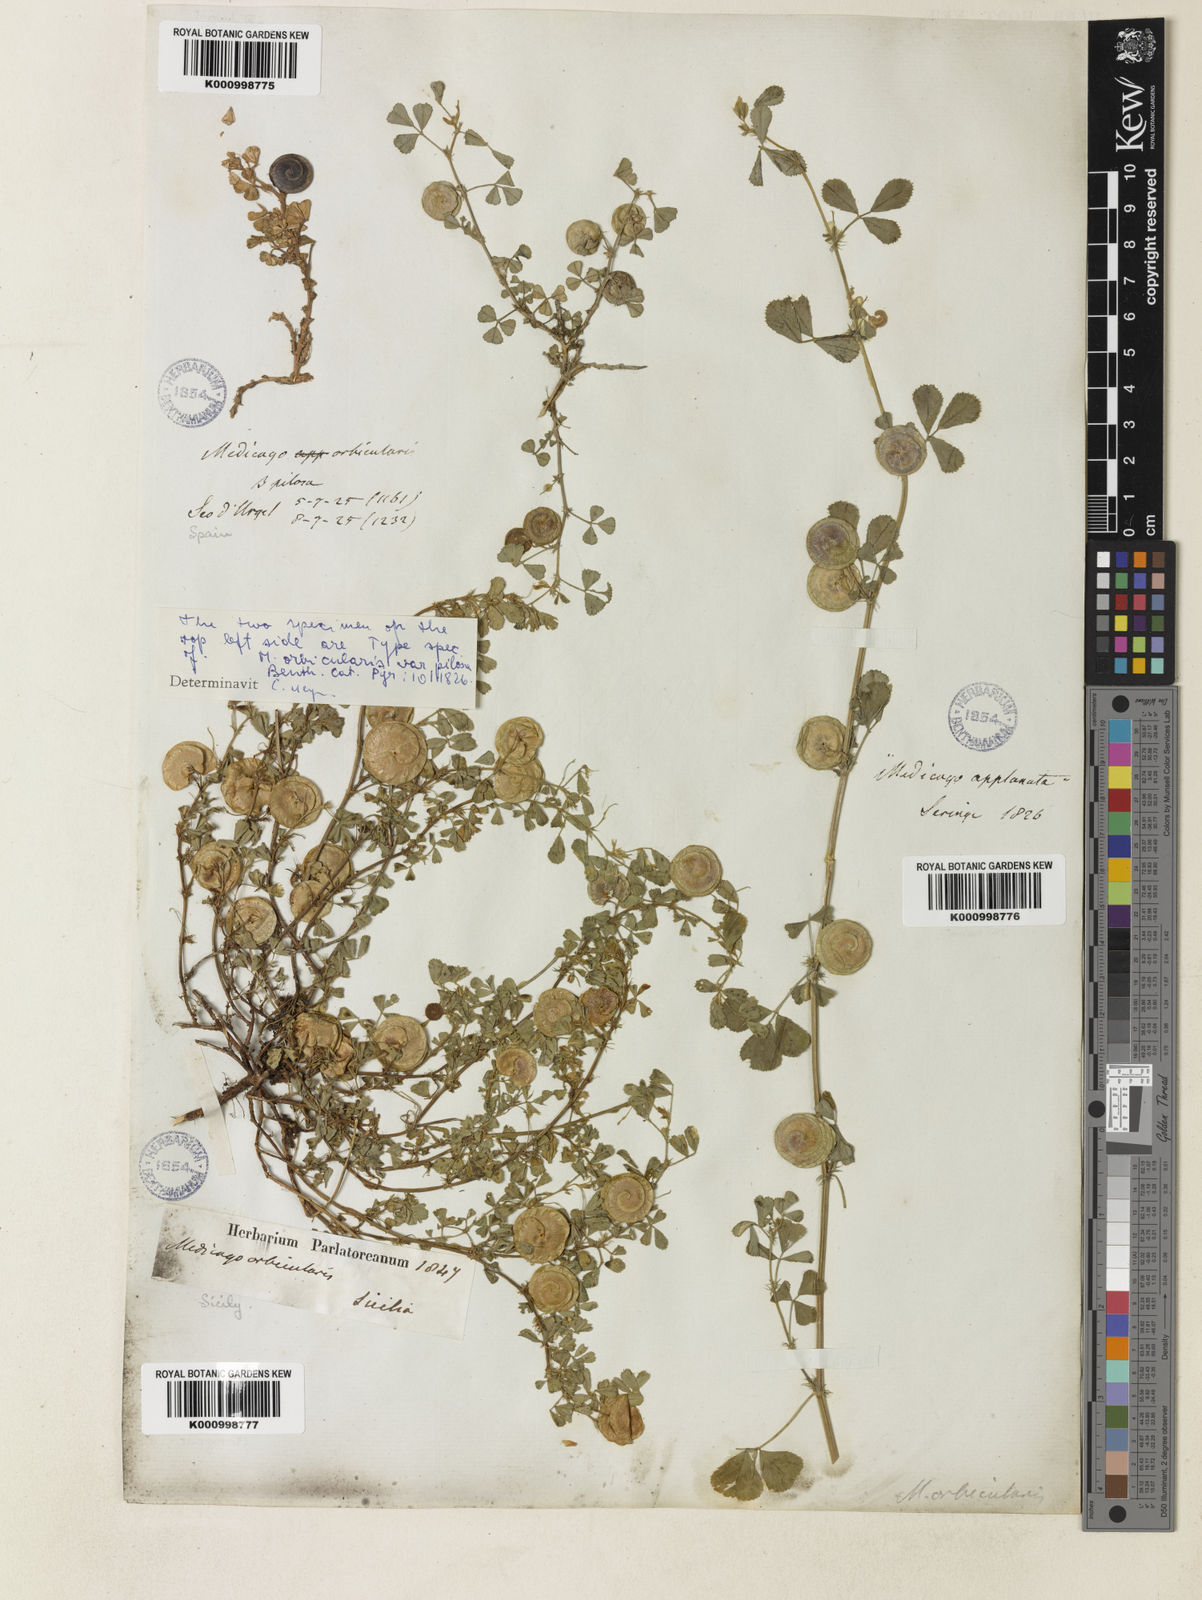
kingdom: Plantae
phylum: Tracheophyta
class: Magnoliopsida
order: Fabales
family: Fabaceae
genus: Medicago
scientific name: Medicago orbicularis
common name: Button medick
